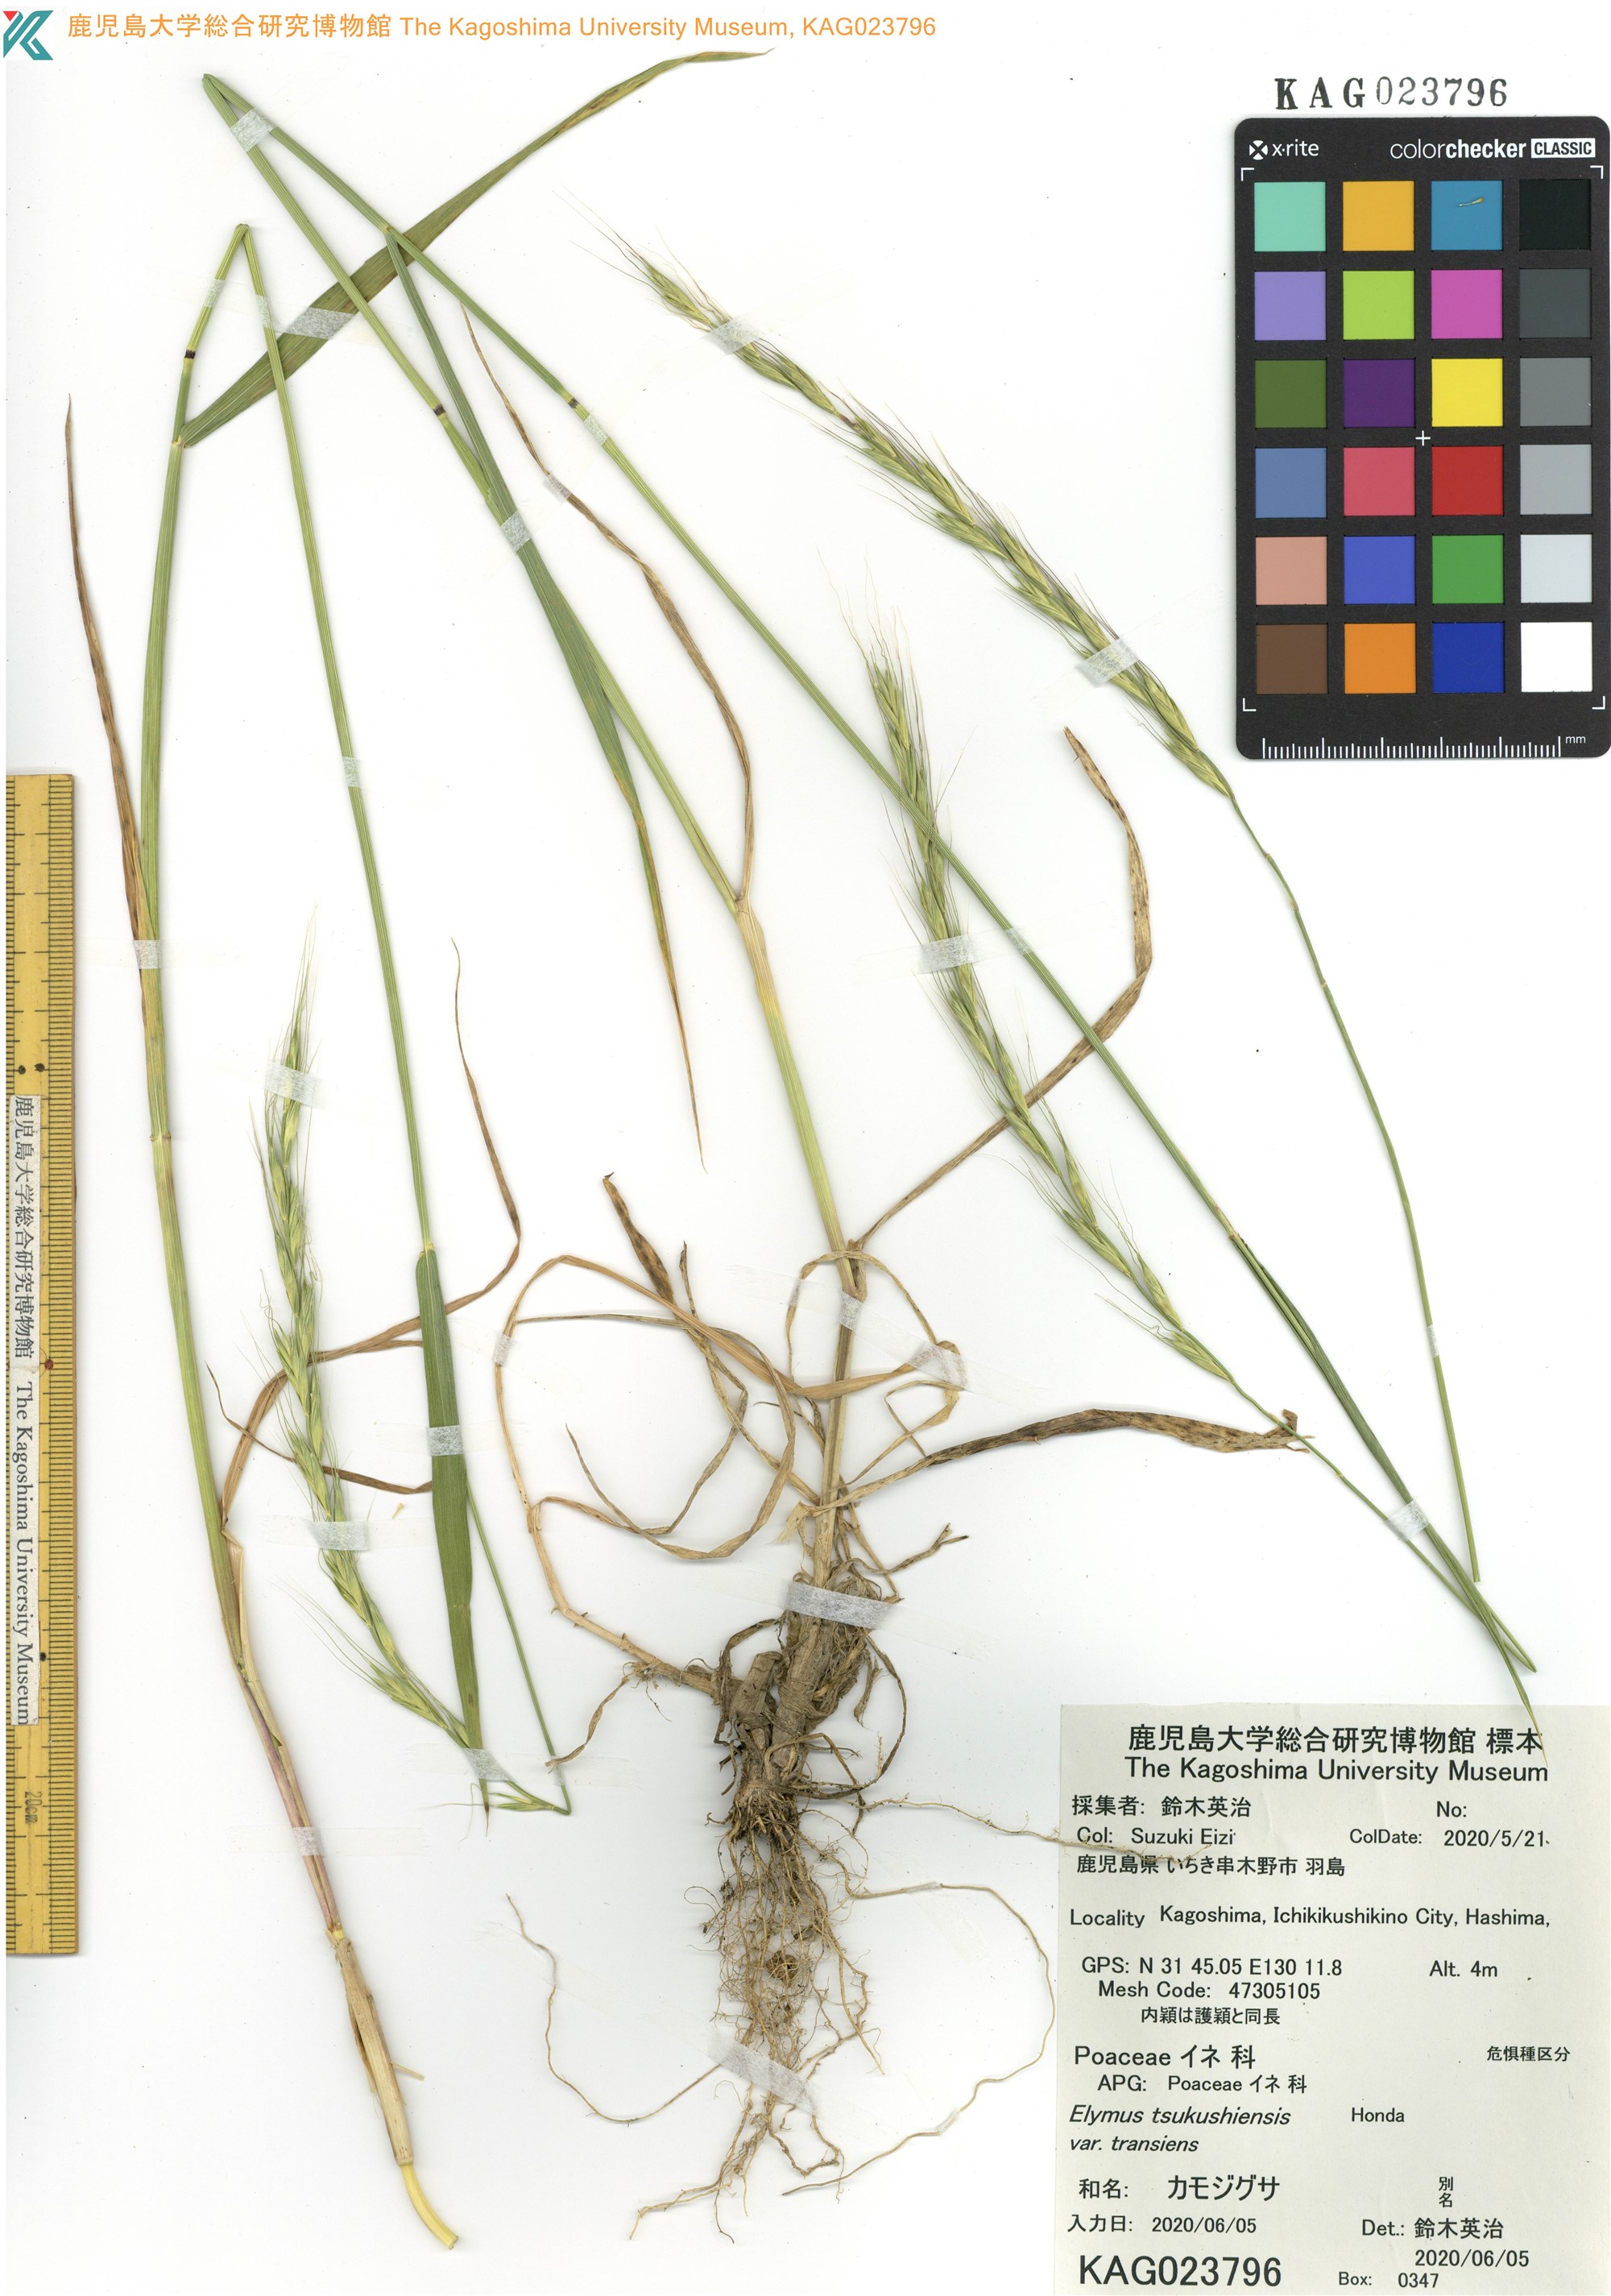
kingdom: Plantae
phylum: Tracheophyta
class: Liliopsida
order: Poales
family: Poaceae
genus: Elymus
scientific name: Elymus tsukushiensis
